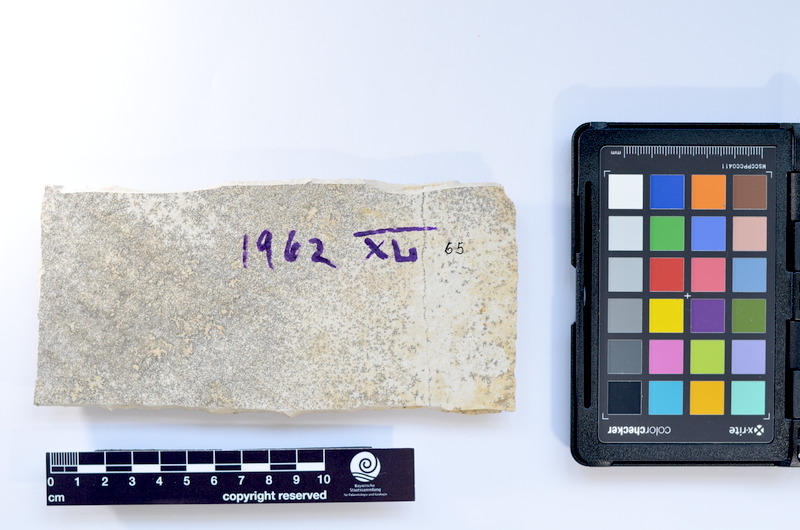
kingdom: Animalia
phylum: Chordata
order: Salmoniformes
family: Orthogonikleithridae
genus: Leptolepides
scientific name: Leptolepides sprattiformis
